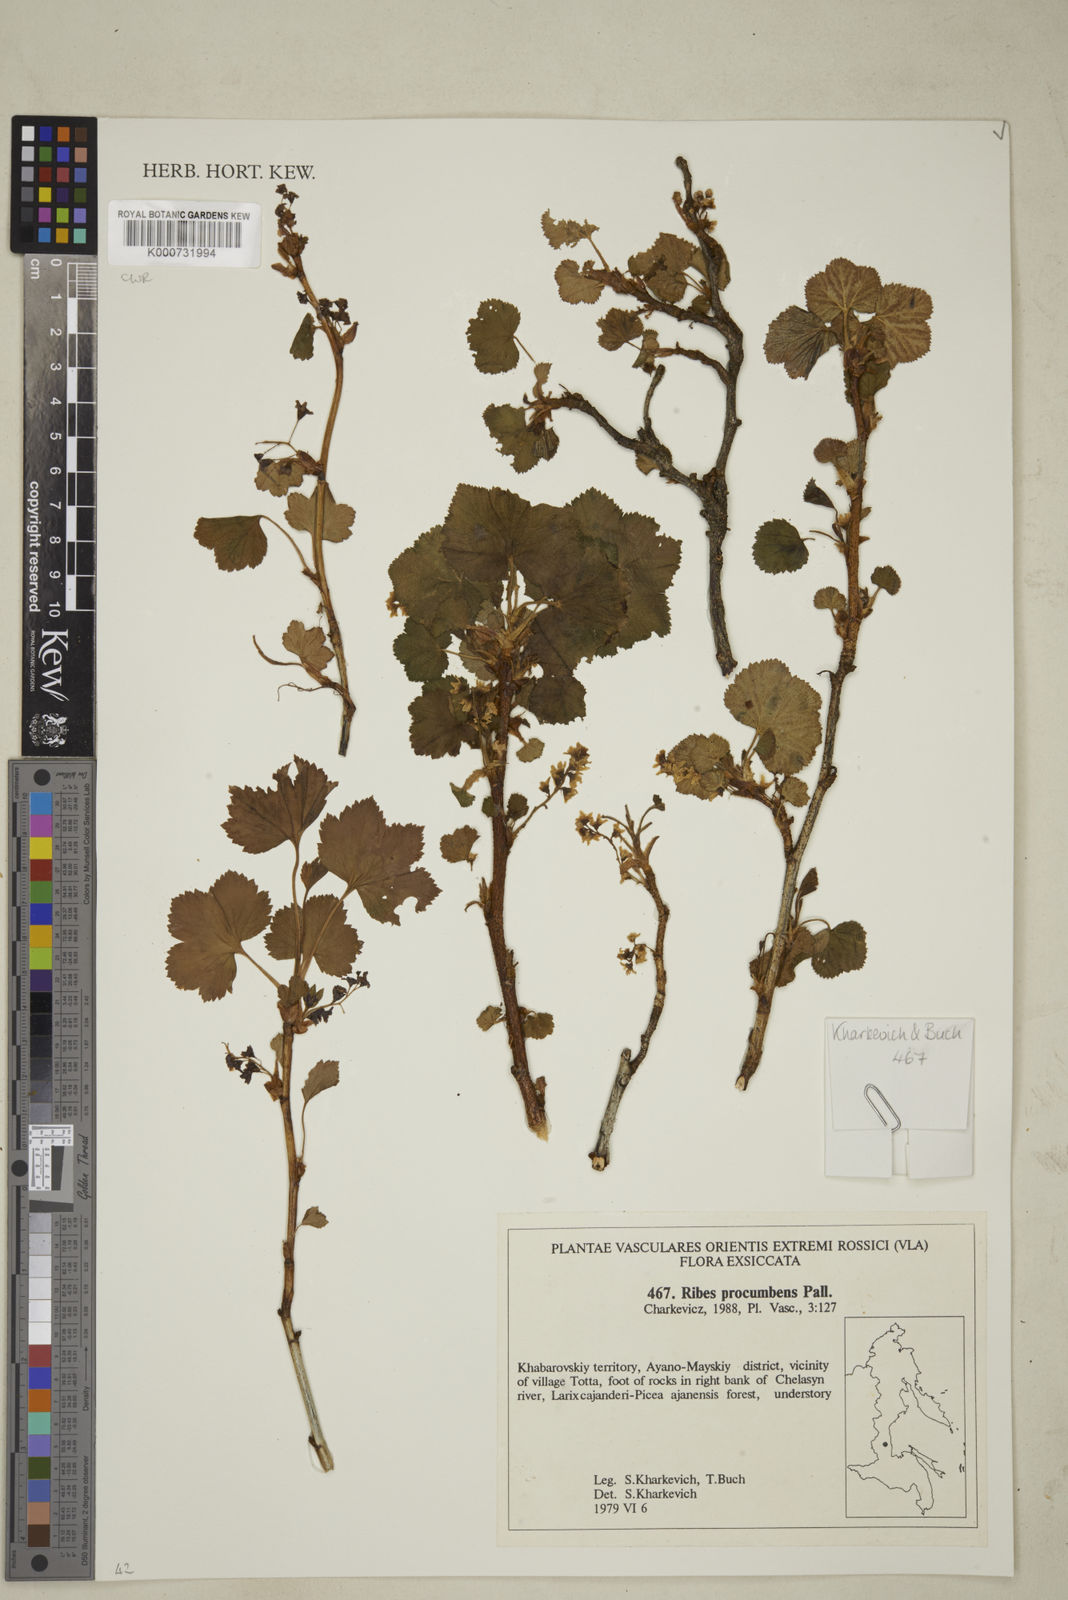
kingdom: Plantae
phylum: Tracheophyta
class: Magnoliopsida
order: Saxifragales
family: Grossulariaceae
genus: Ribes
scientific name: Ribes procumbens
